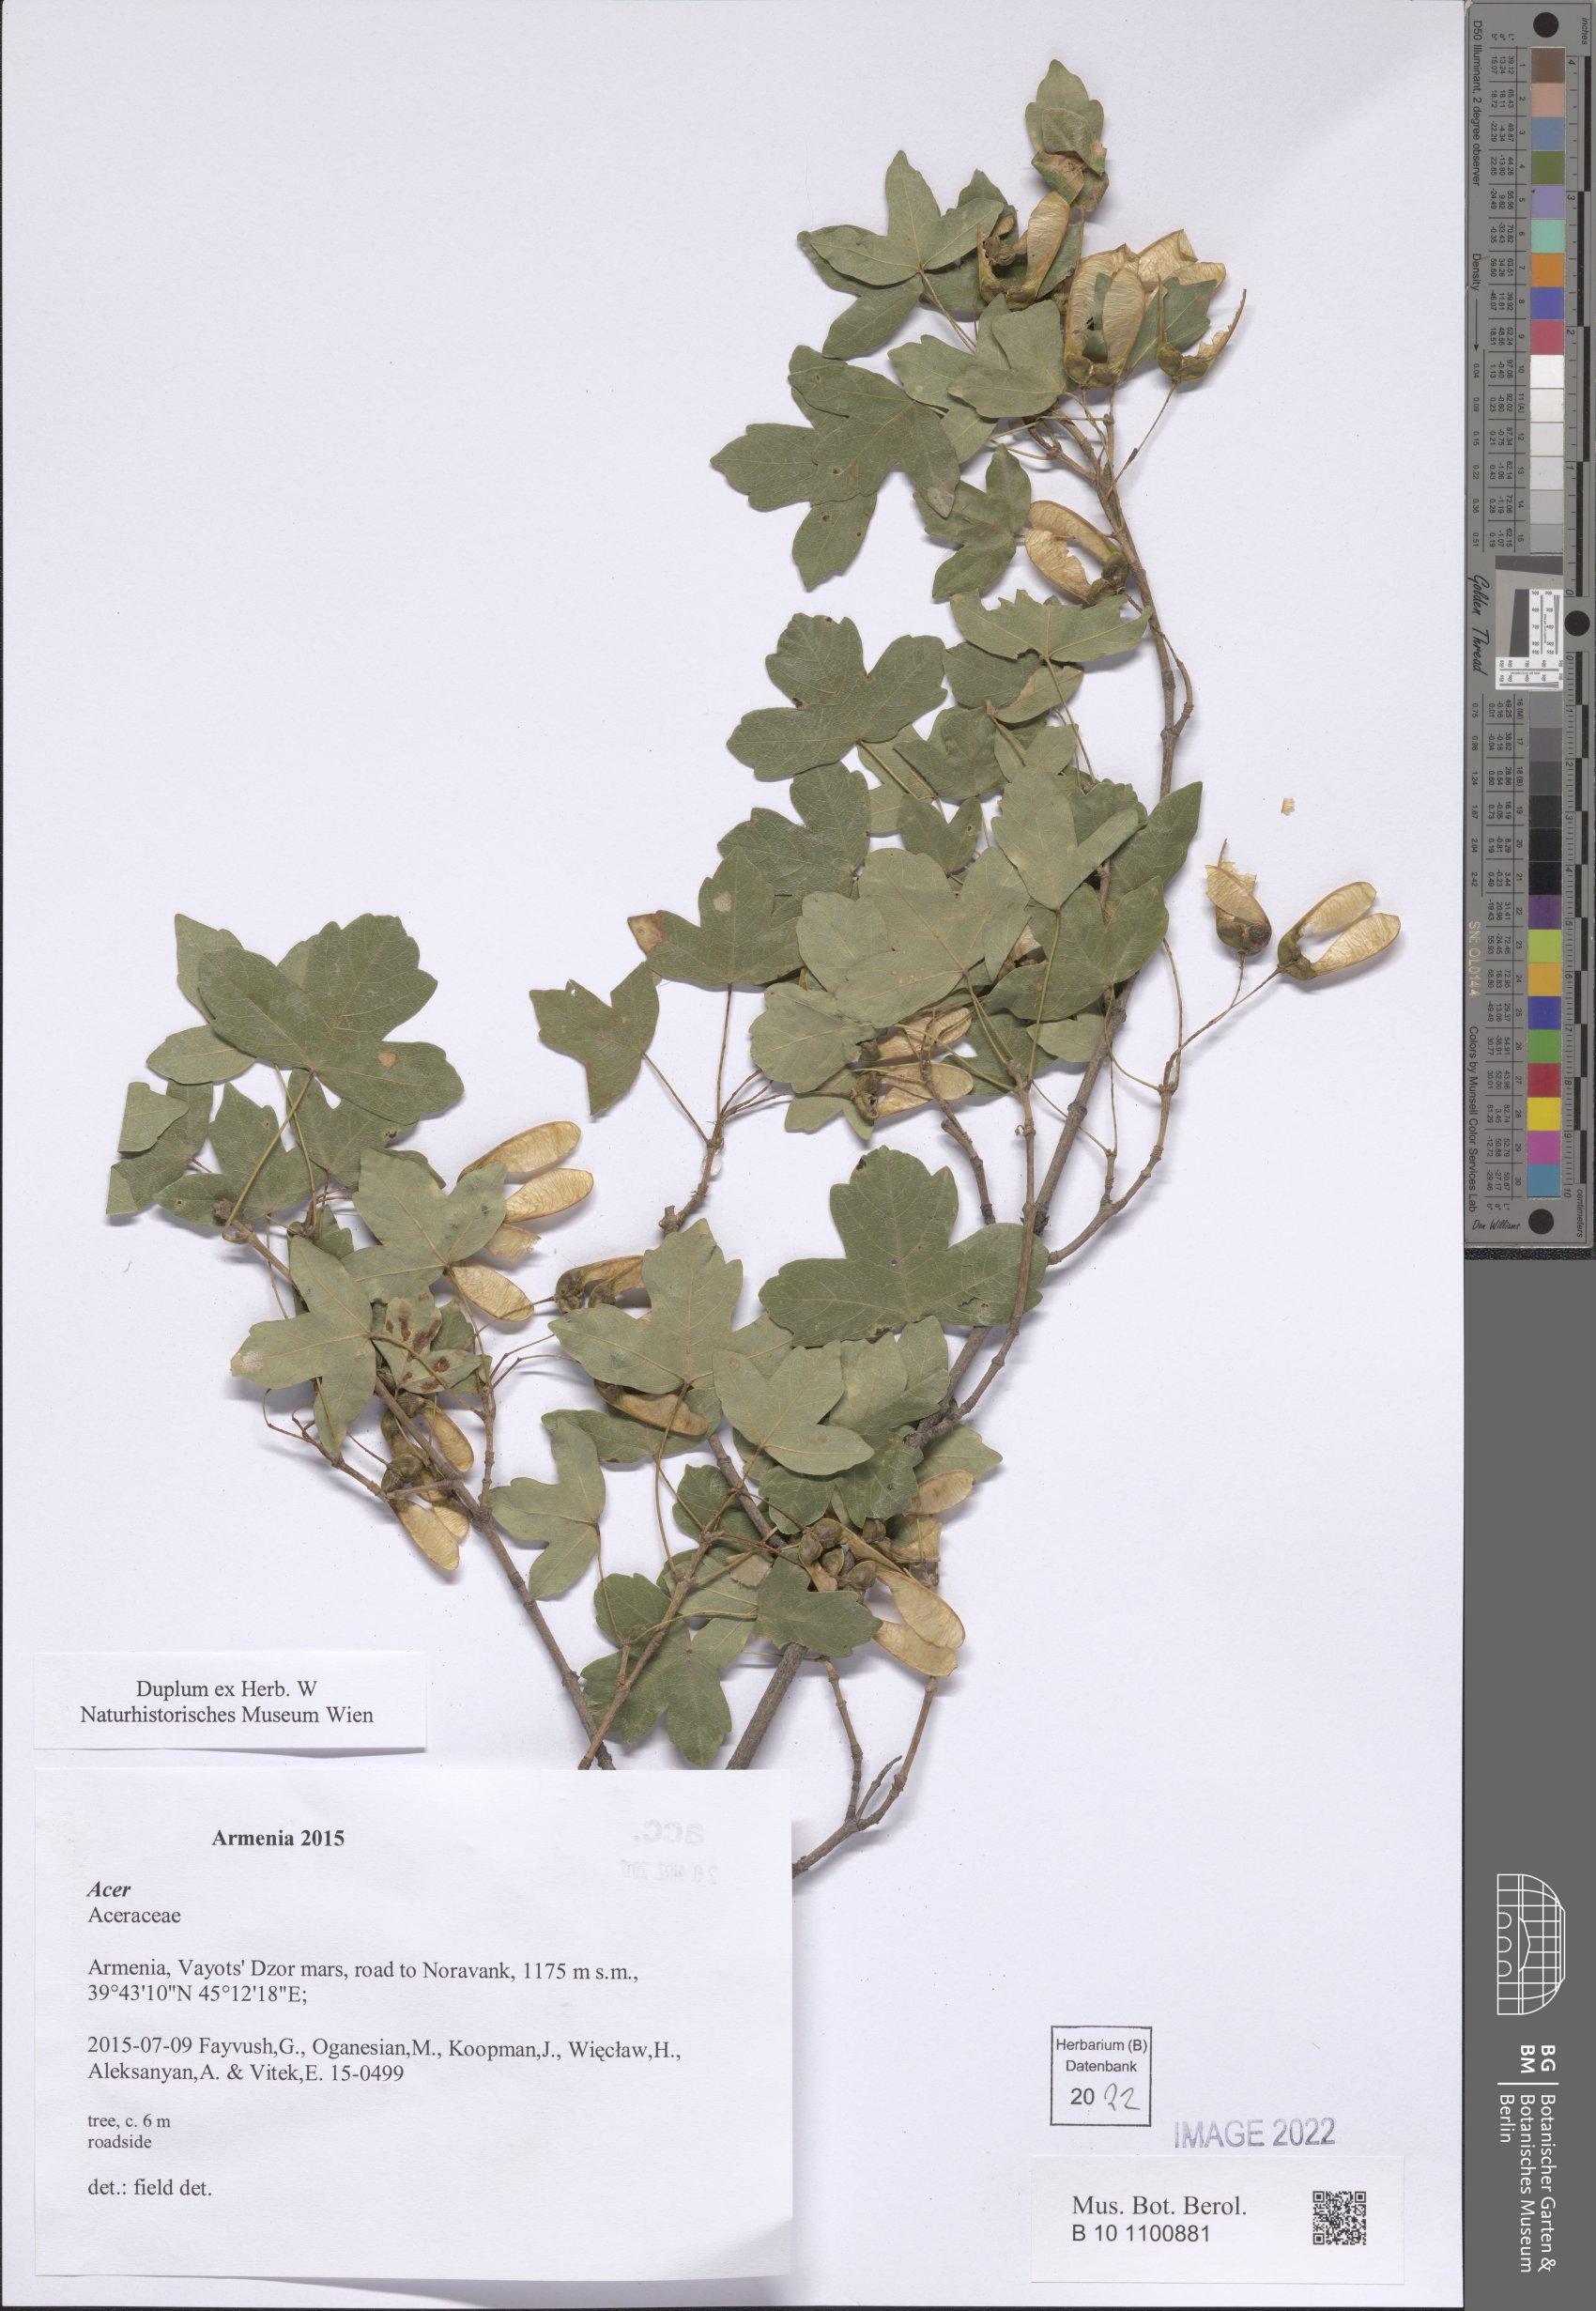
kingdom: Plantae
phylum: Tracheophyta
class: Magnoliopsida
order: Sapindales
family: Sapindaceae
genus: Acer
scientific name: Acer
